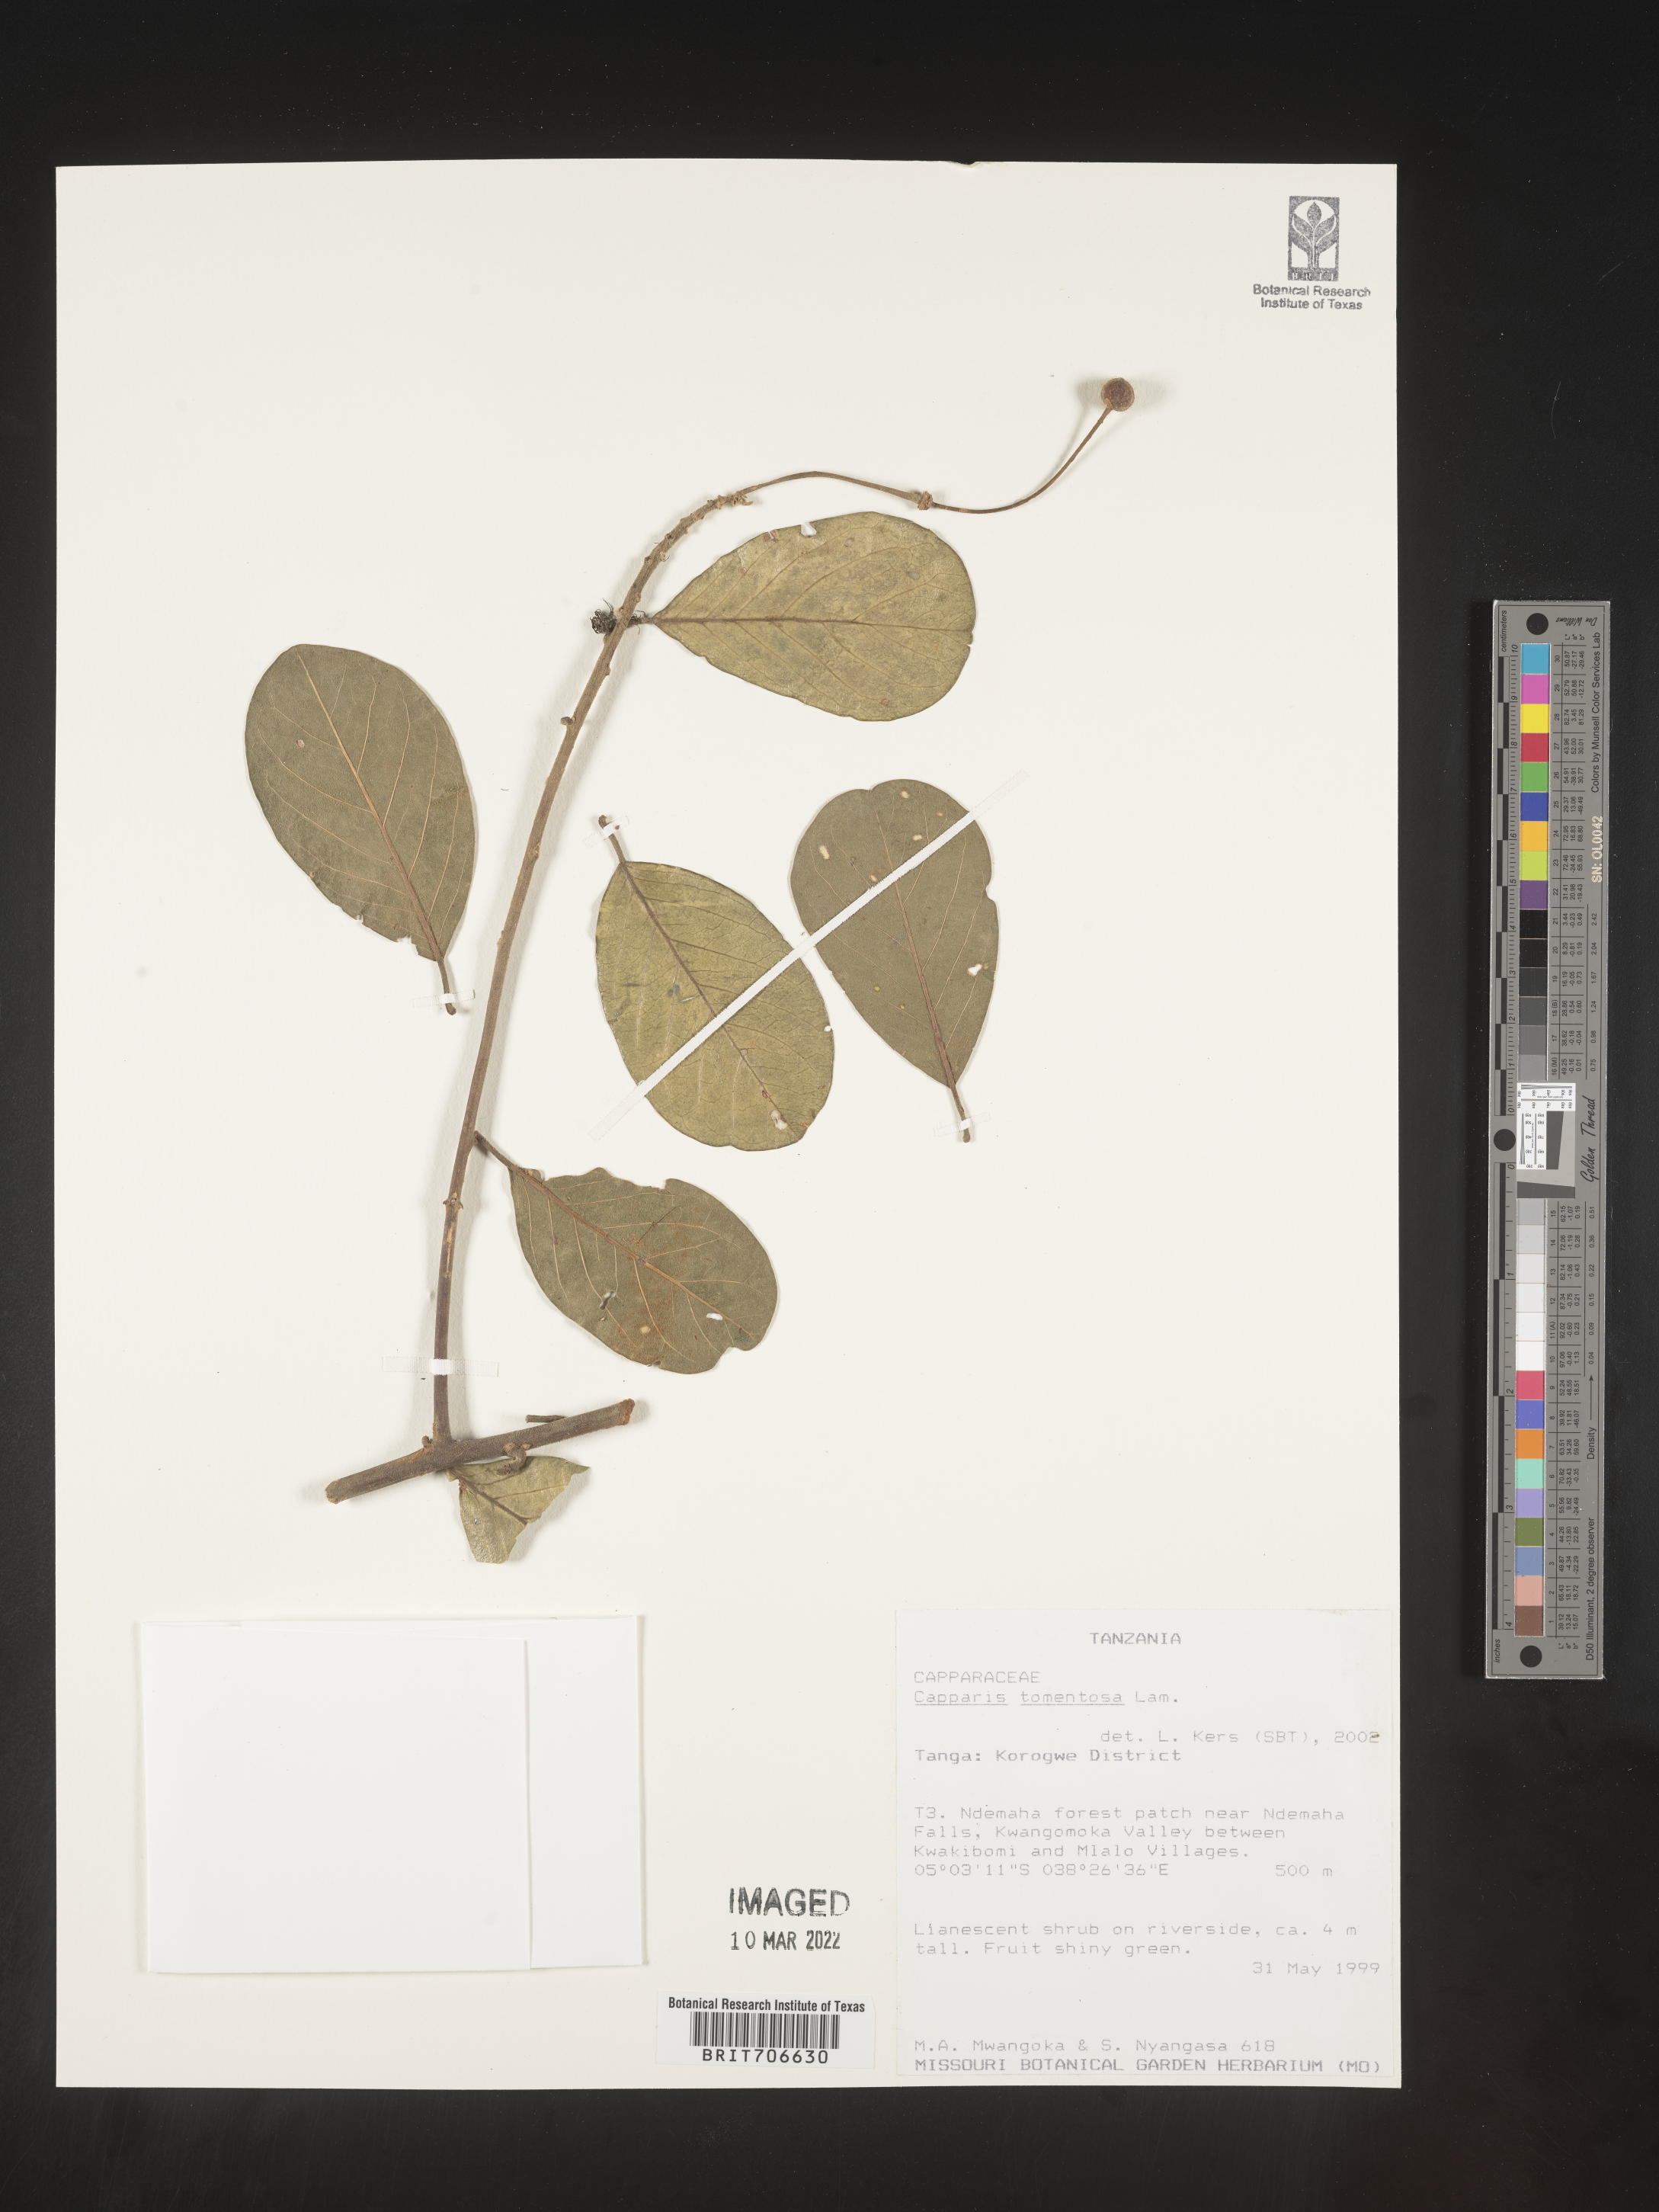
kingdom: Plantae
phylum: Tracheophyta
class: Magnoliopsida
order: Brassicales
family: Capparaceae
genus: Capparis
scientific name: Capparis
